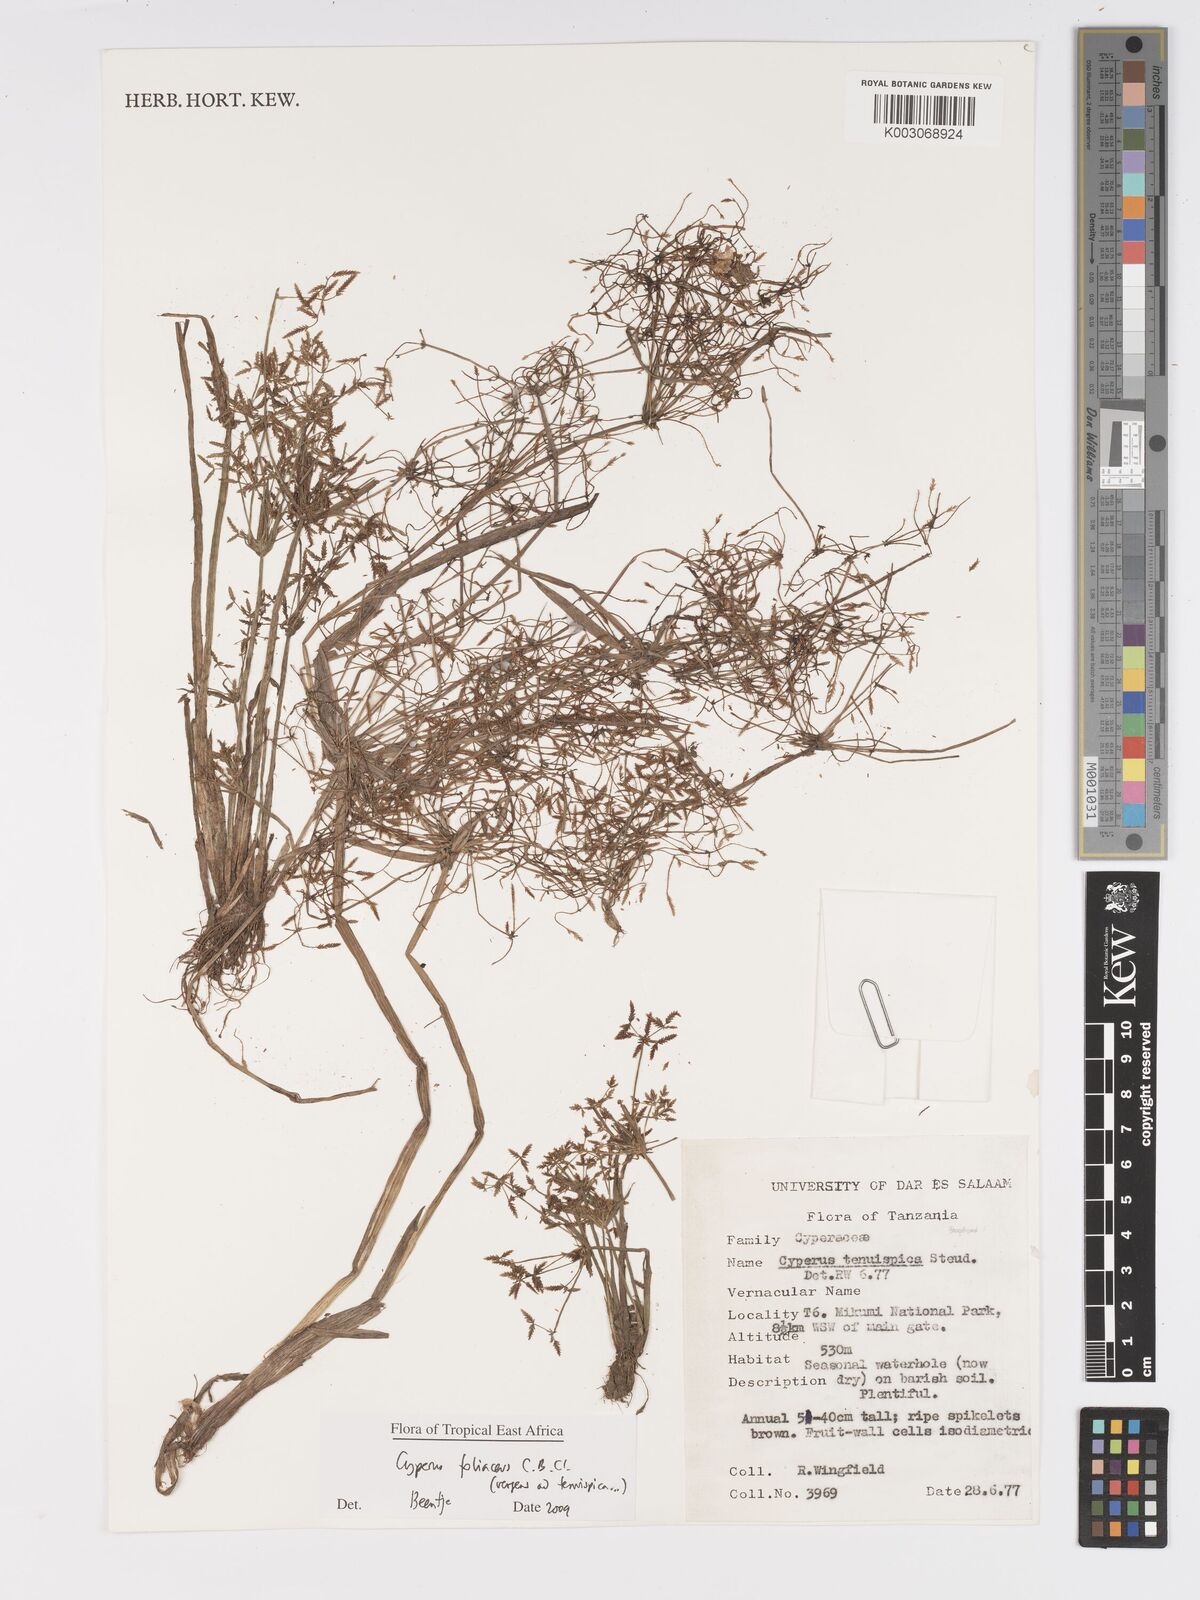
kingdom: Plantae
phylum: Tracheophyta
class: Liliopsida
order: Poales
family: Cyperaceae
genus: Cyperus
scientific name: Cyperus foliaceus
